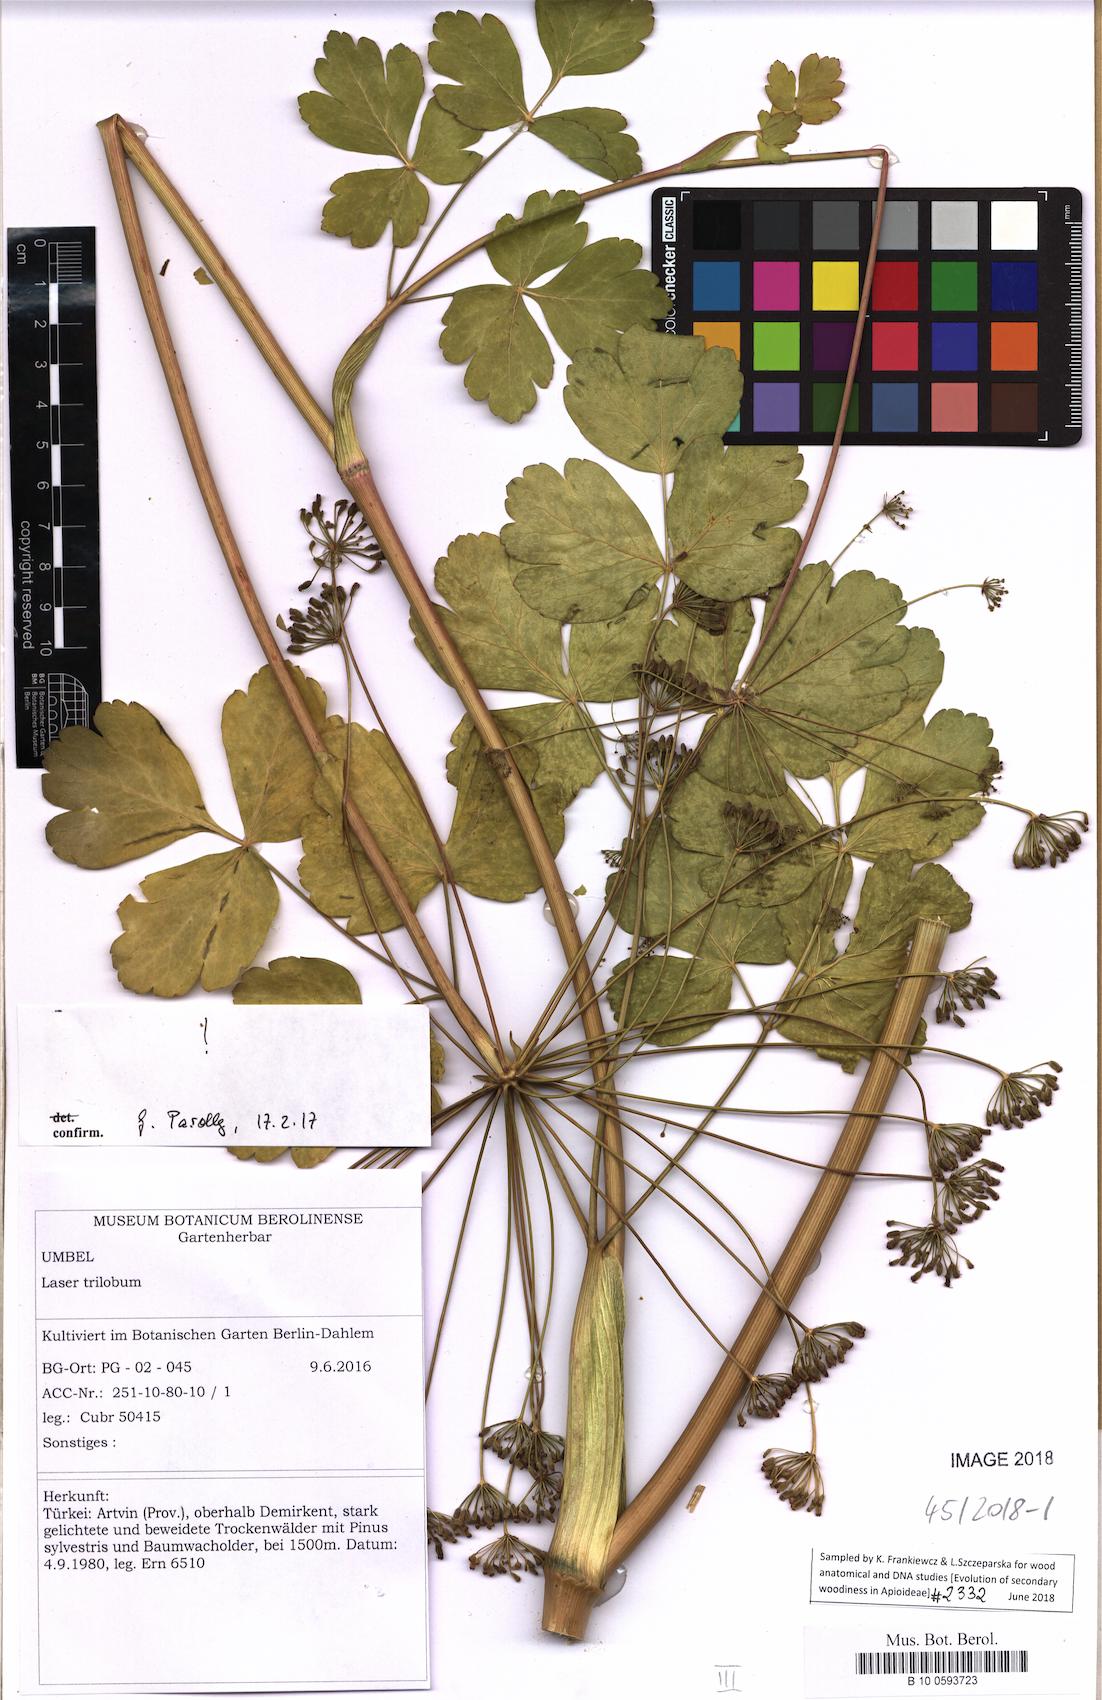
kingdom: Plantae
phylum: Tracheophyta
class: Magnoliopsida
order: Apiales
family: Apiaceae
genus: Laser
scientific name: Laser trilobum
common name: Laser
